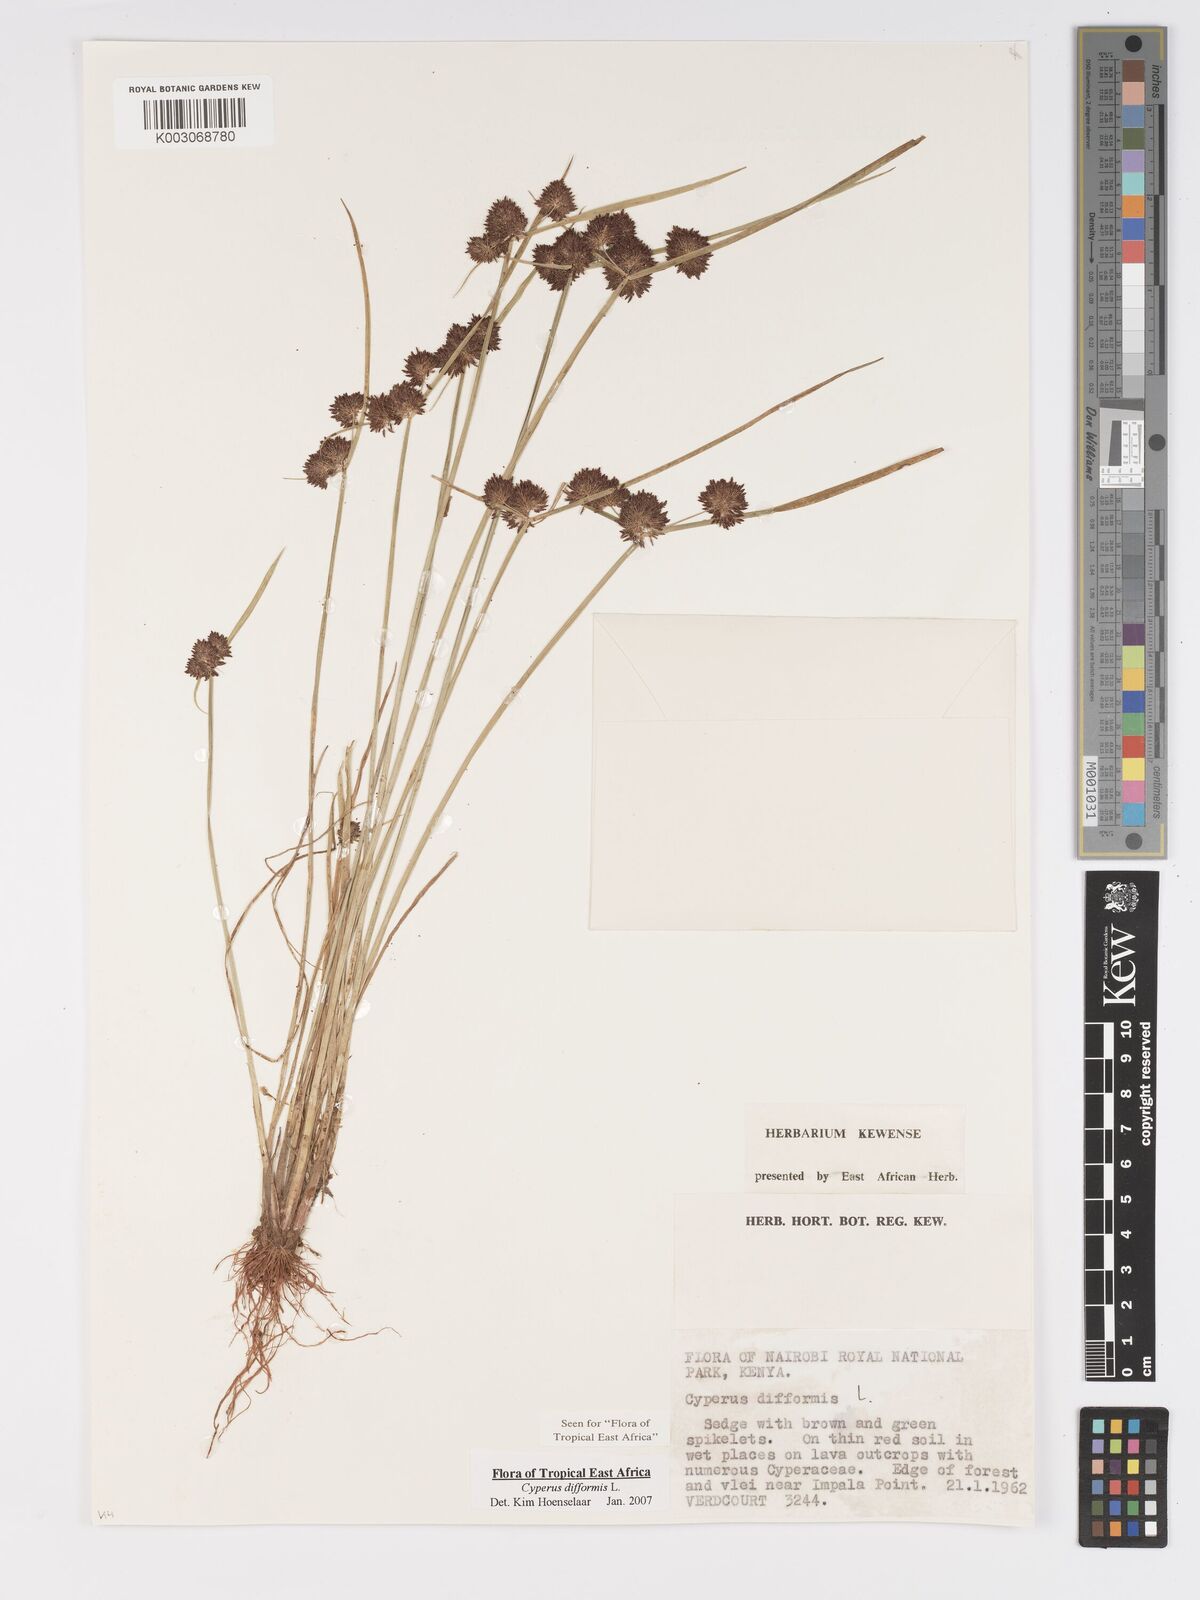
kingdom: Plantae
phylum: Tracheophyta
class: Liliopsida
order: Poales
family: Cyperaceae
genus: Cyperus
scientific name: Cyperus difformis
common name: Variable flatsedge
